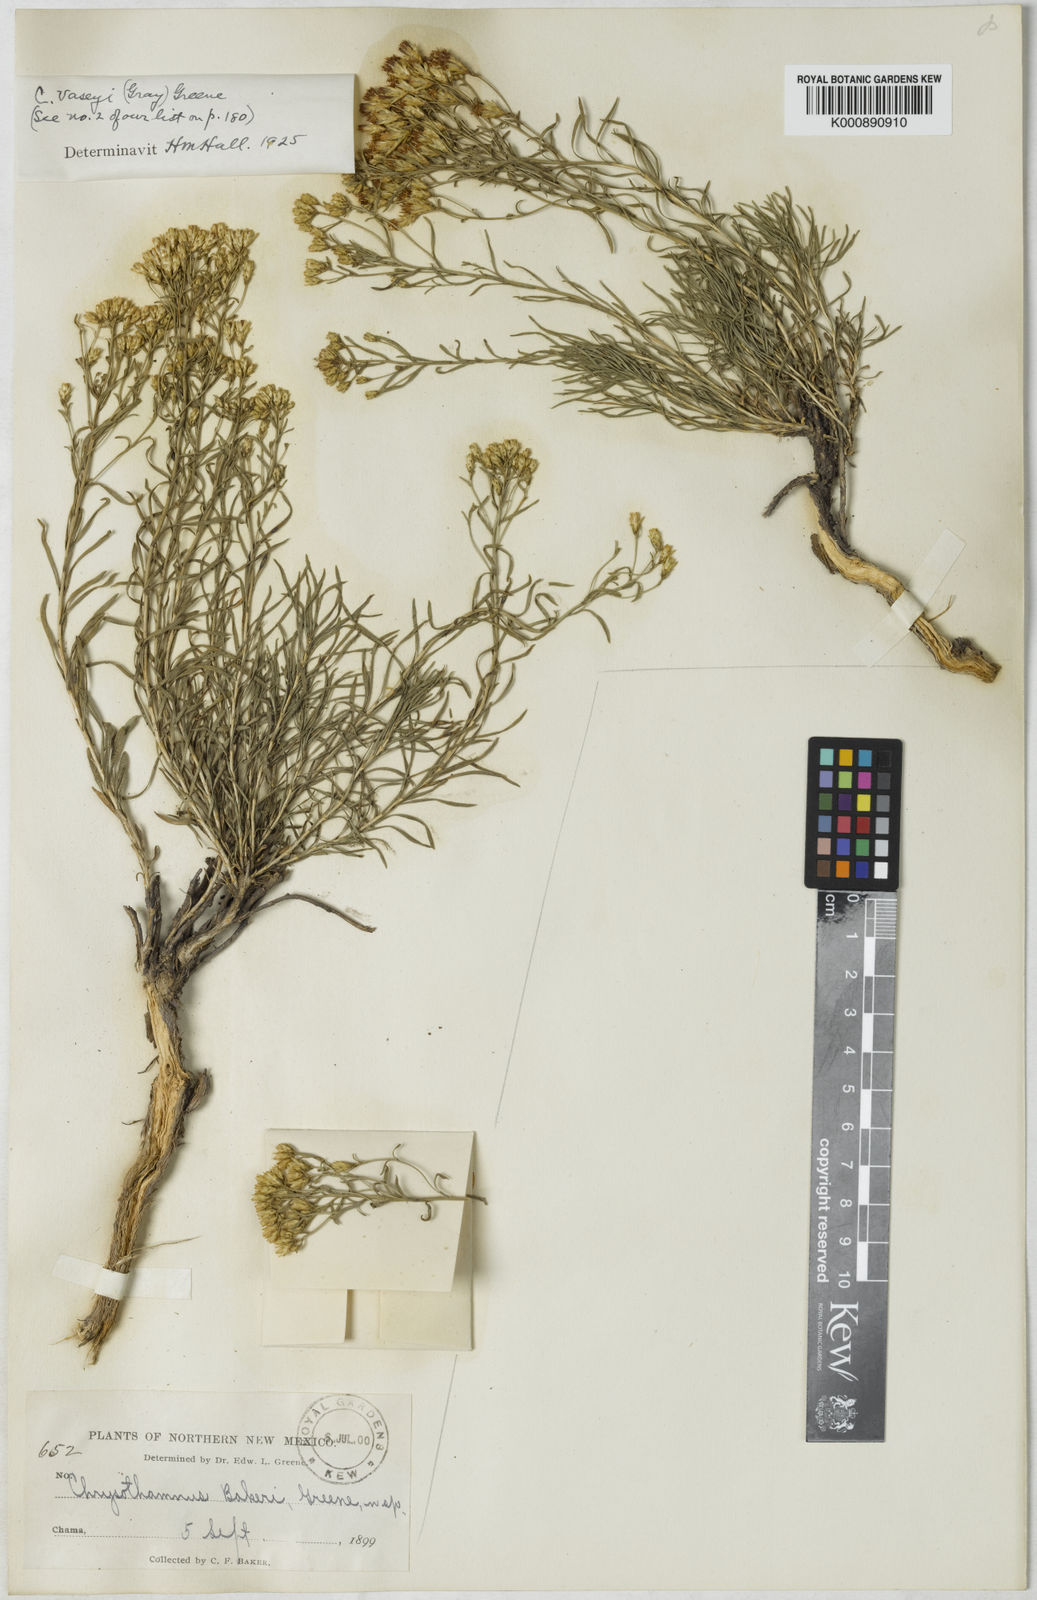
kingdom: Plantae
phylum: Tracheophyta
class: Magnoliopsida
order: Asterales
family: Asteraceae
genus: Chrysothamnus
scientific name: Chrysothamnus vaseyi
